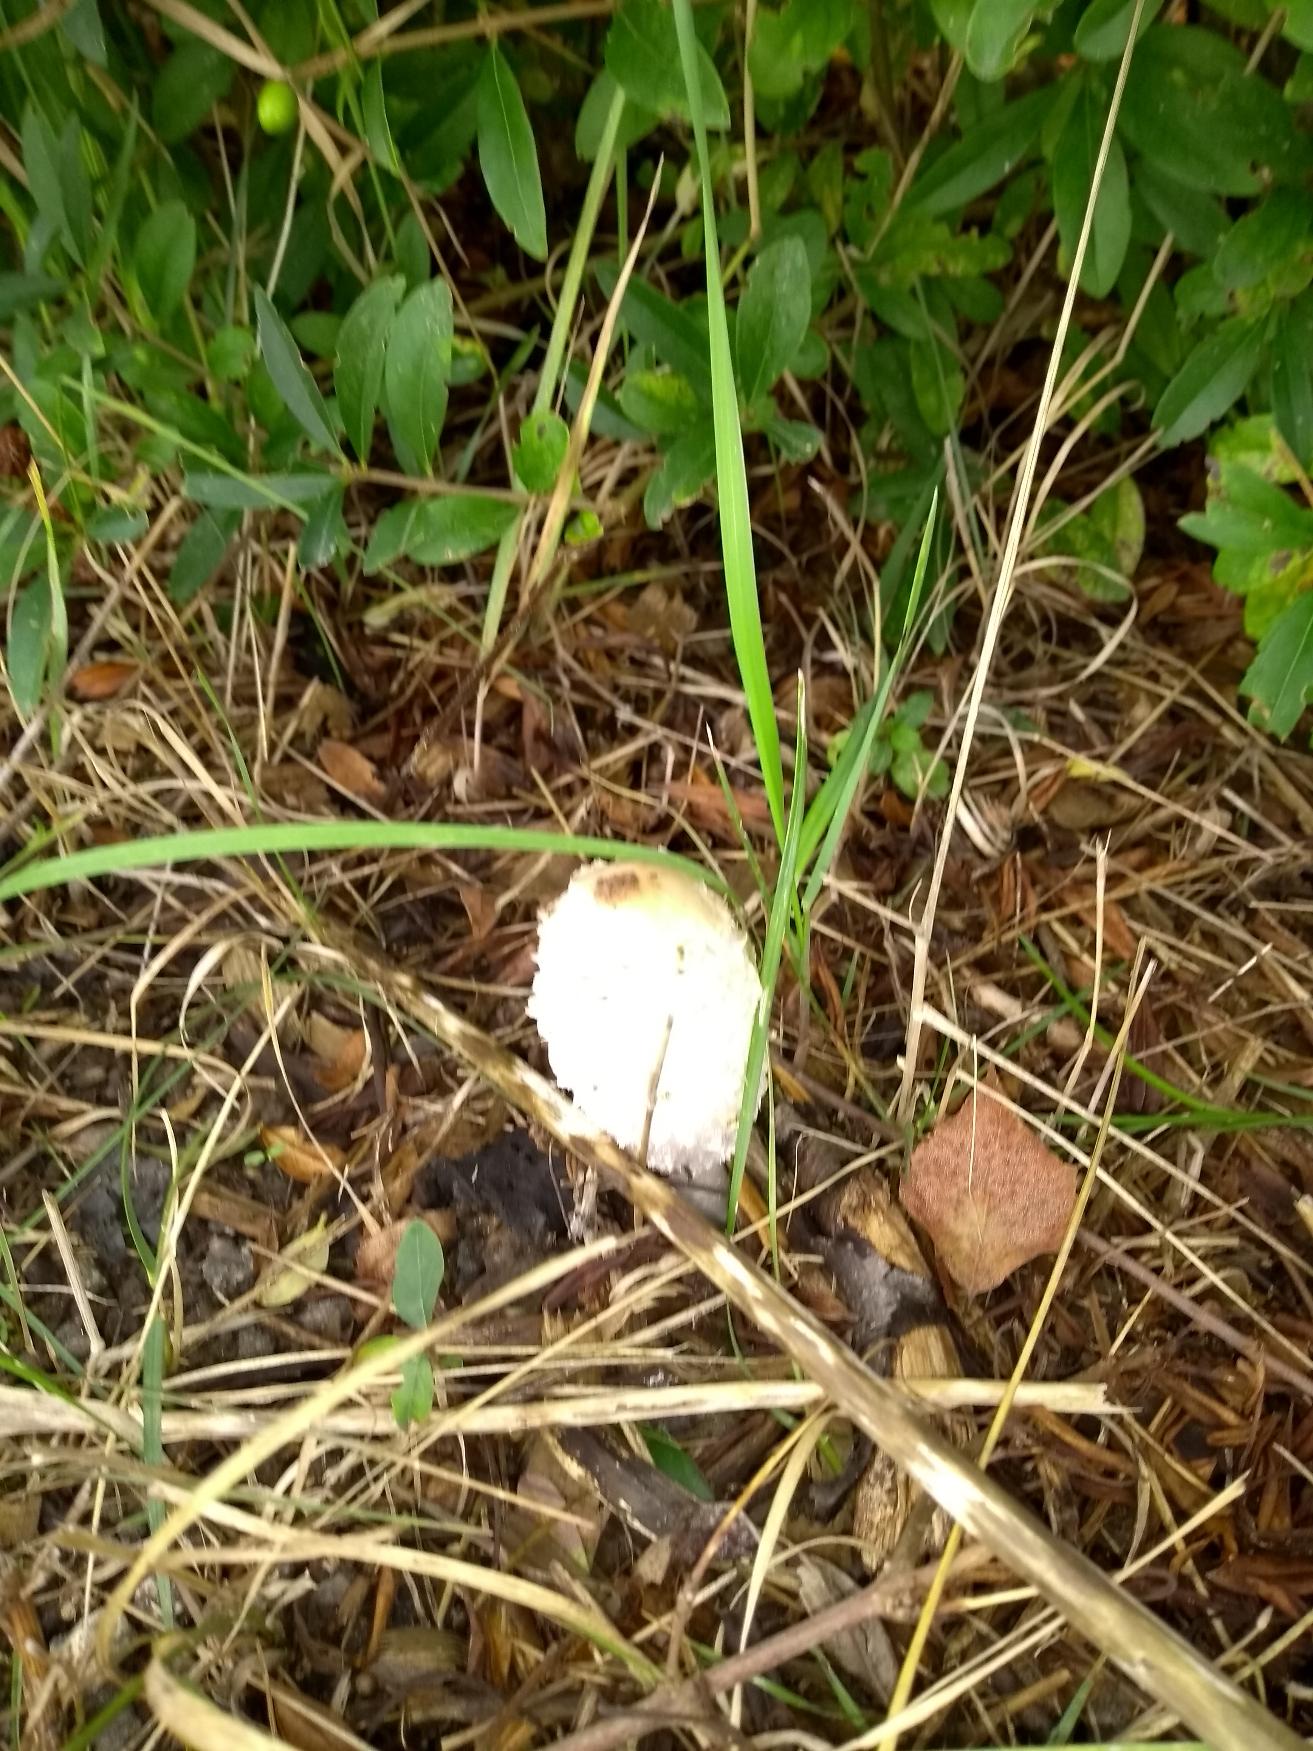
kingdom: Fungi
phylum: Basidiomycota
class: Agaricomycetes
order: Agaricales
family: Agaricaceae
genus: Coprinus
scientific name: Coprinus comatus
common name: Stor parykhat
